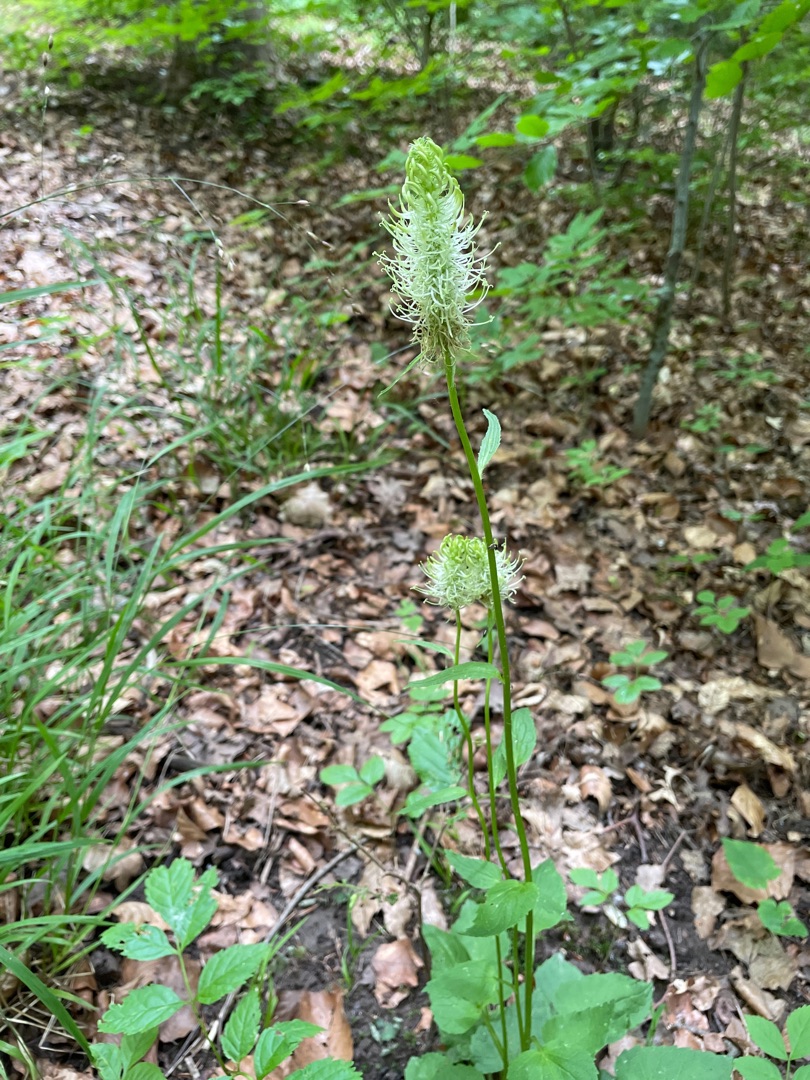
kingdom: Plantae
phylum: Tracheophyta
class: Magnoliopsida
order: Asterales
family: Campanulaceae
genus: Phyteuma
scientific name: Phyteuma spicatum
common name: Aks-rapunsel
